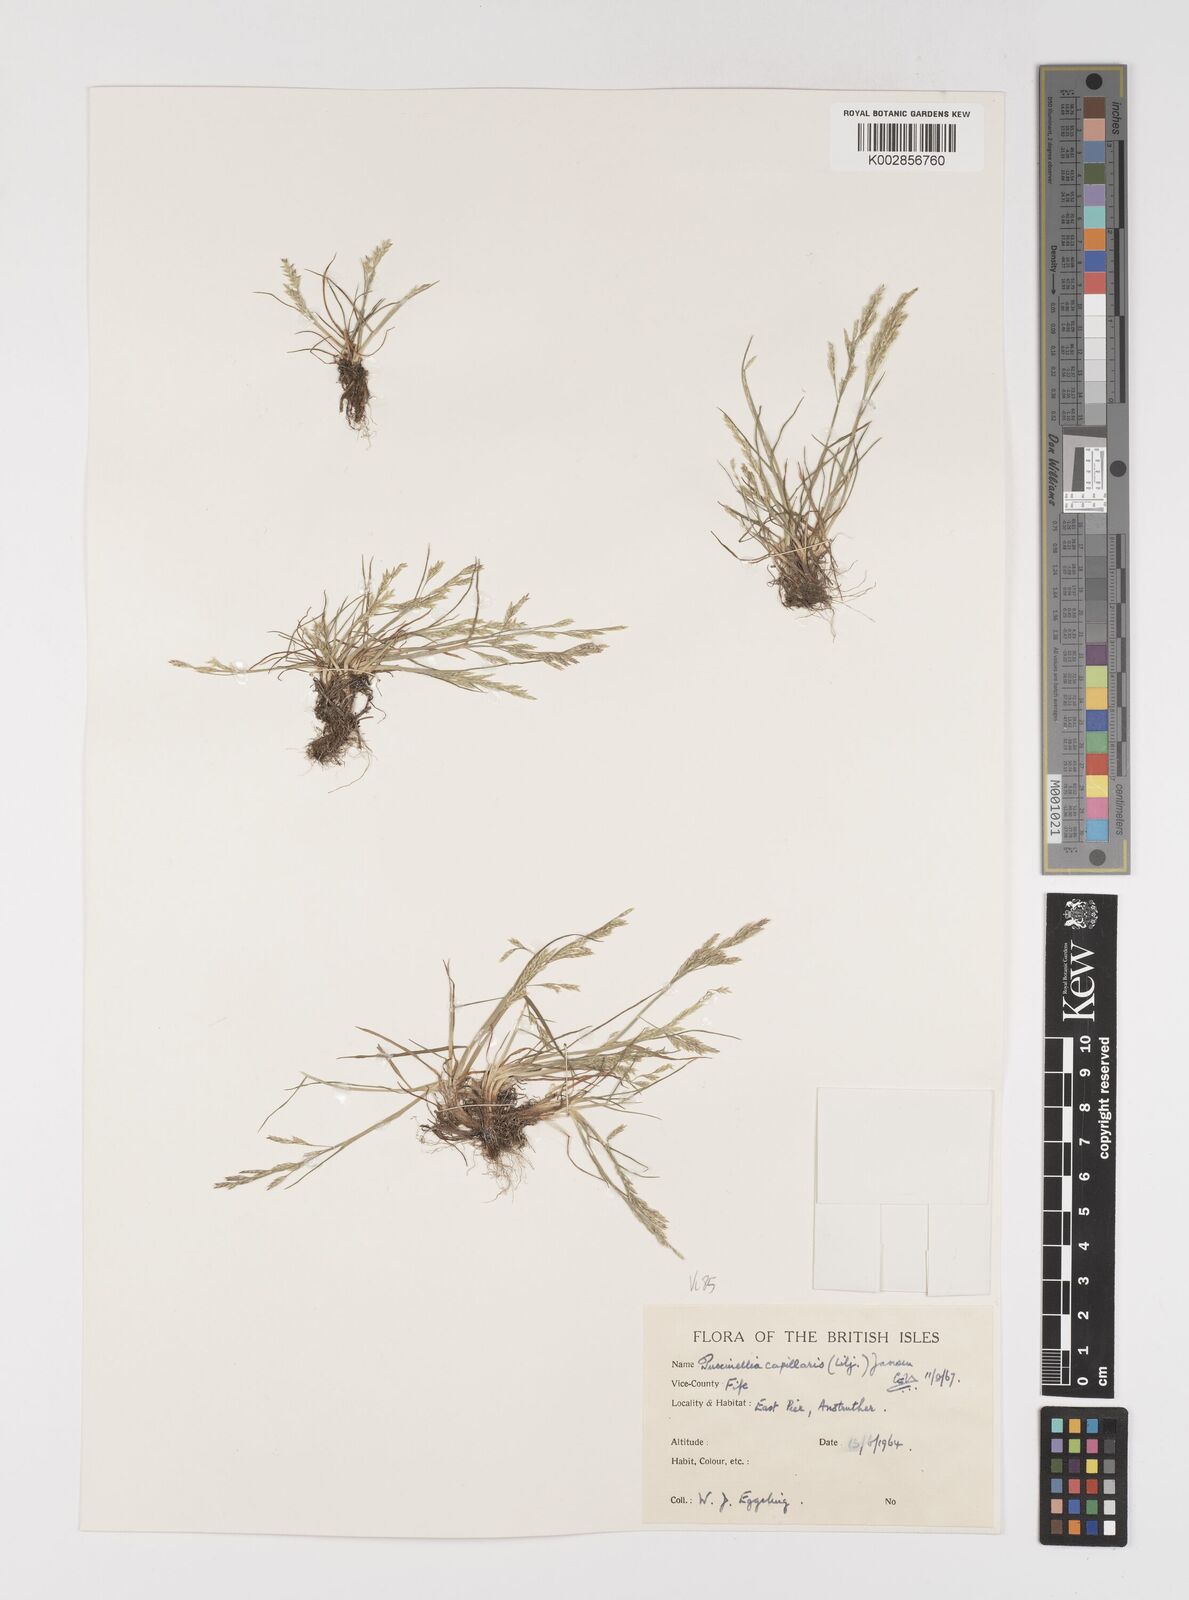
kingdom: Plantae
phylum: Tracheophyta
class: Liliopsida
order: Poales
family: Poaceae
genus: Puccinellia
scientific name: Puccinellia distans
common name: Weeping alkaligrass
